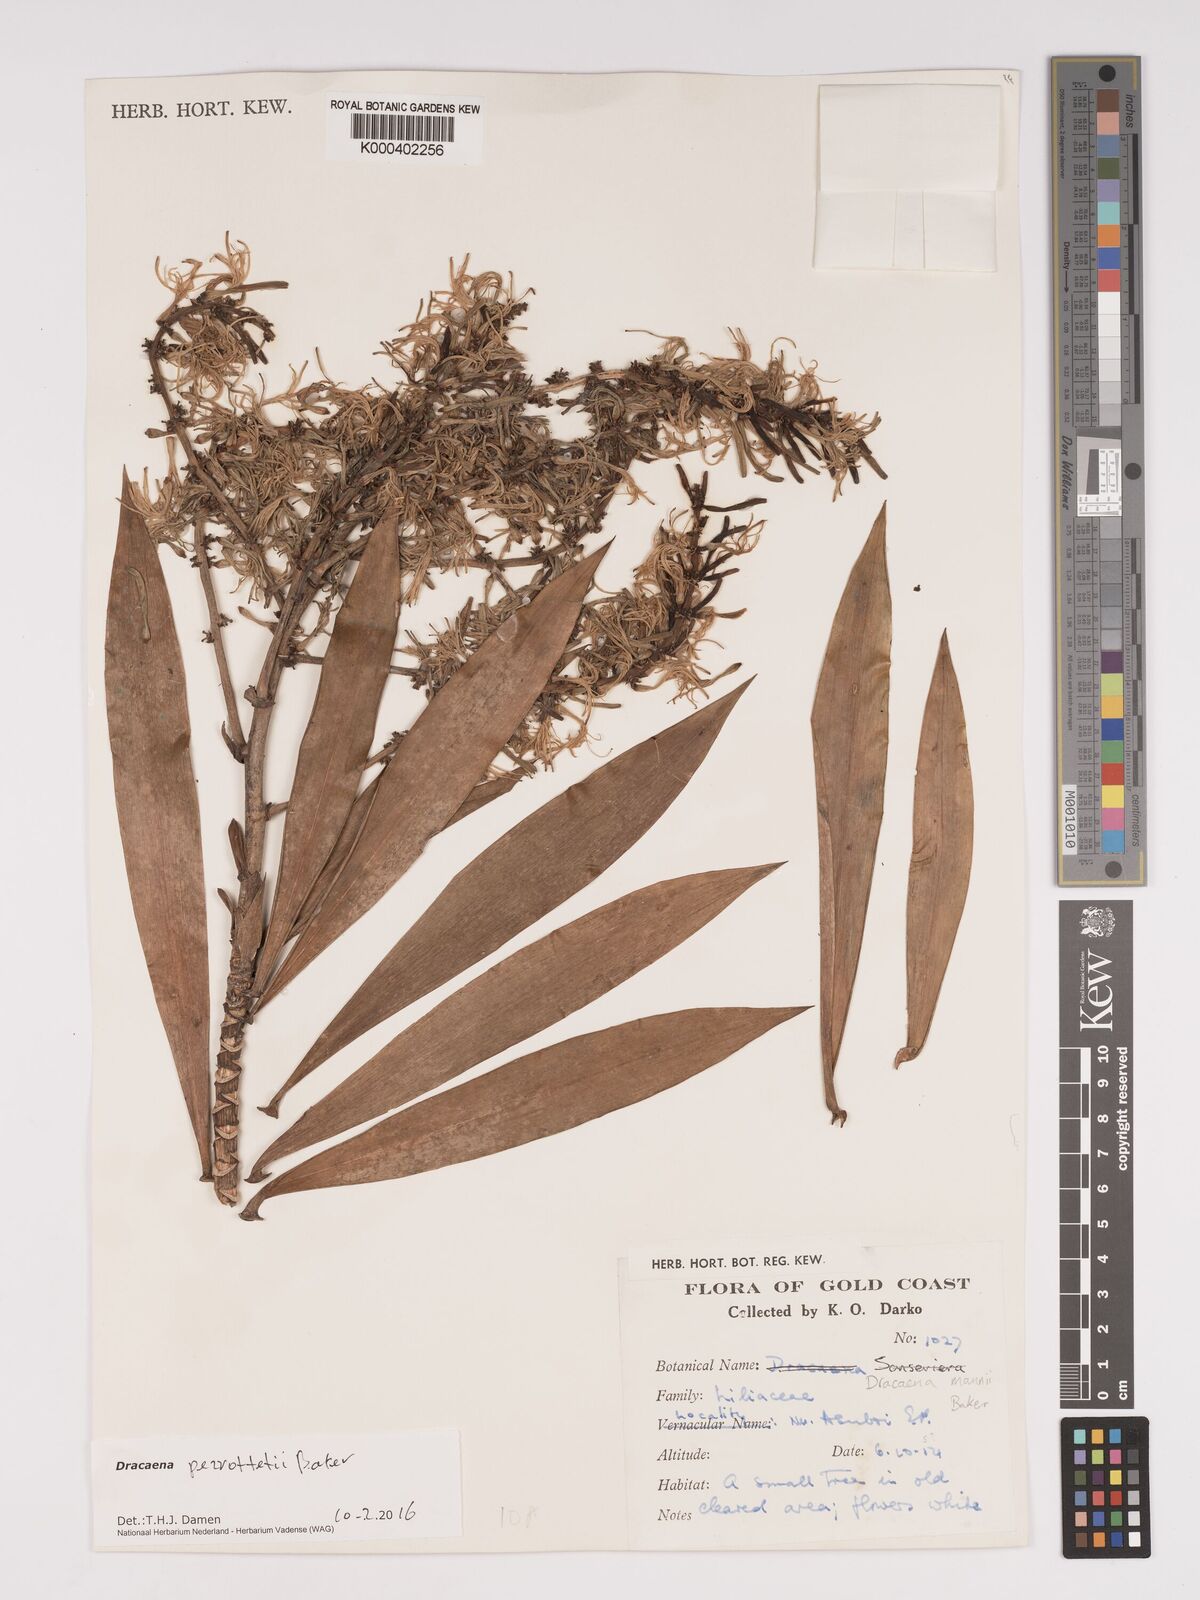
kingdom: Plantae
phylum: Tracheophyta
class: Liliopsida
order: Asparagales
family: Asparagaceae
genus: Dracaena
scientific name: Dracaena perrottetii
